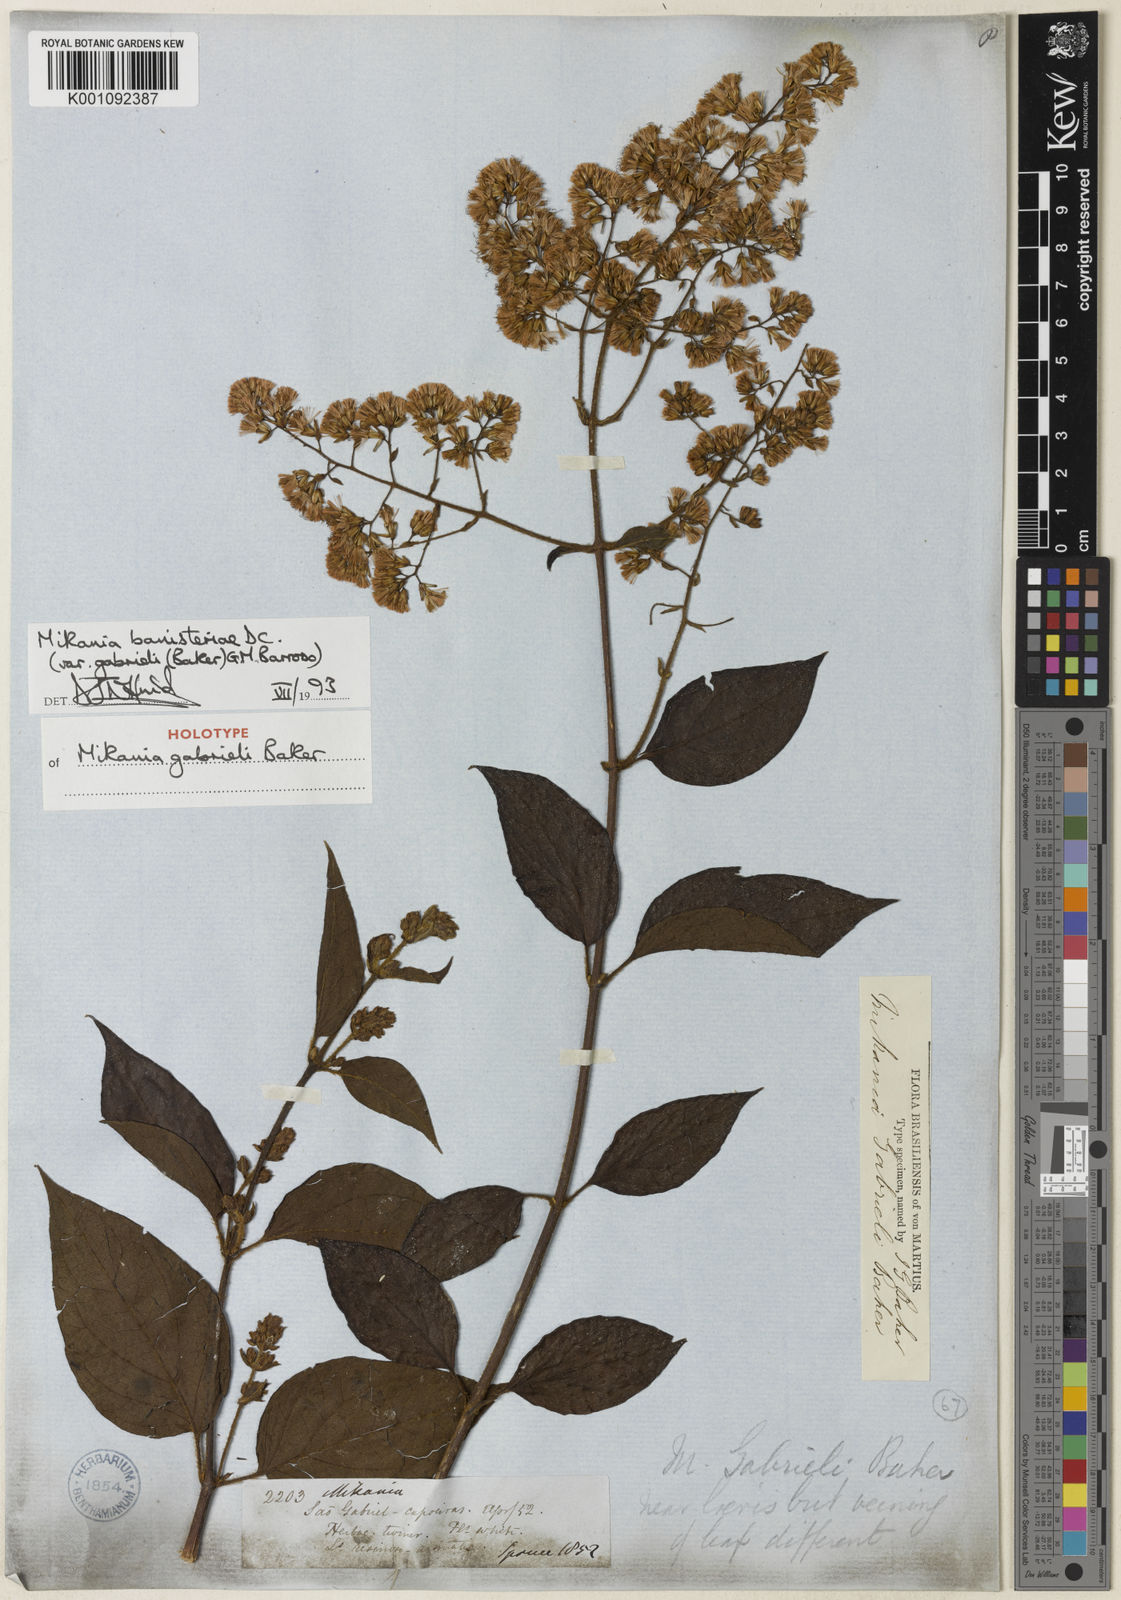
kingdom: Plantae
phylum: Tracheophyta
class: Magnoliopsida
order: Asterales
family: Asteraceae
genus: Mikania
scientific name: Mikania banisteriae
